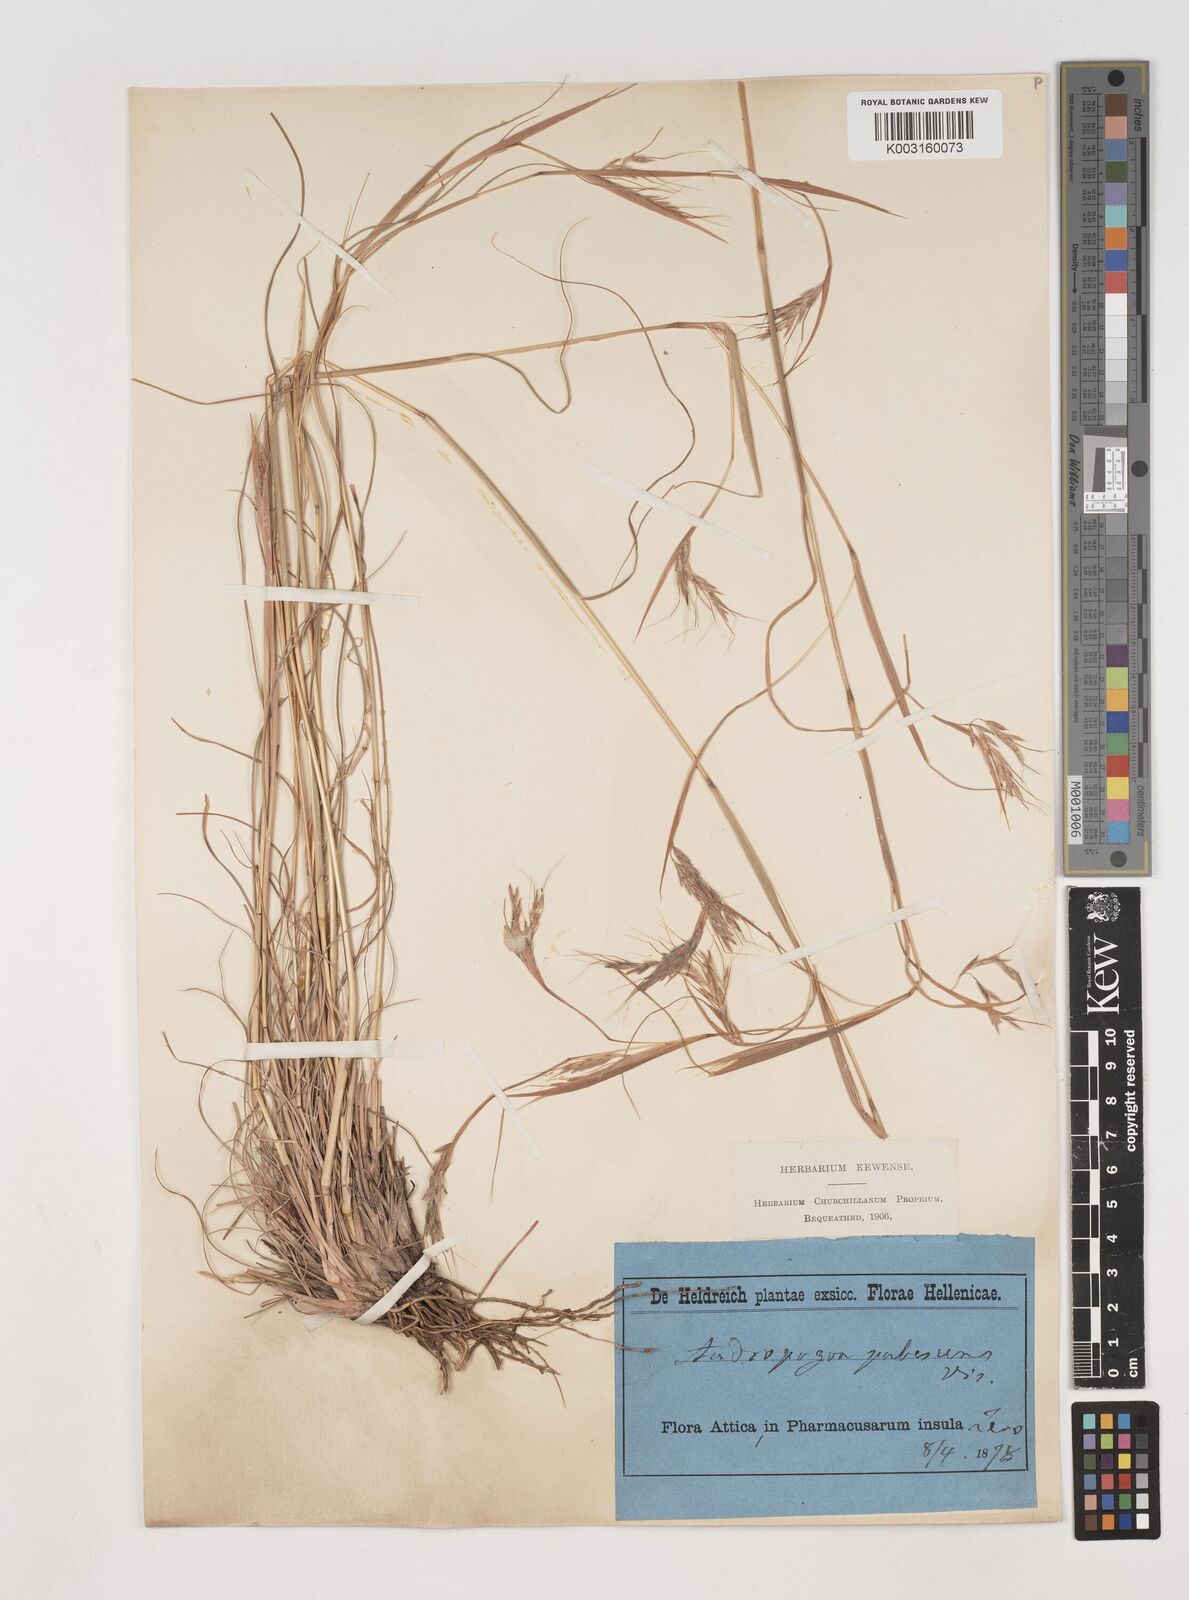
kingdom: Plantae
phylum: Tracheophyta
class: Liliopsida
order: Poales
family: Poaceae
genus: Hyparrhenia
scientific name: Hyparrhenia hirta
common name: Thatching grass
